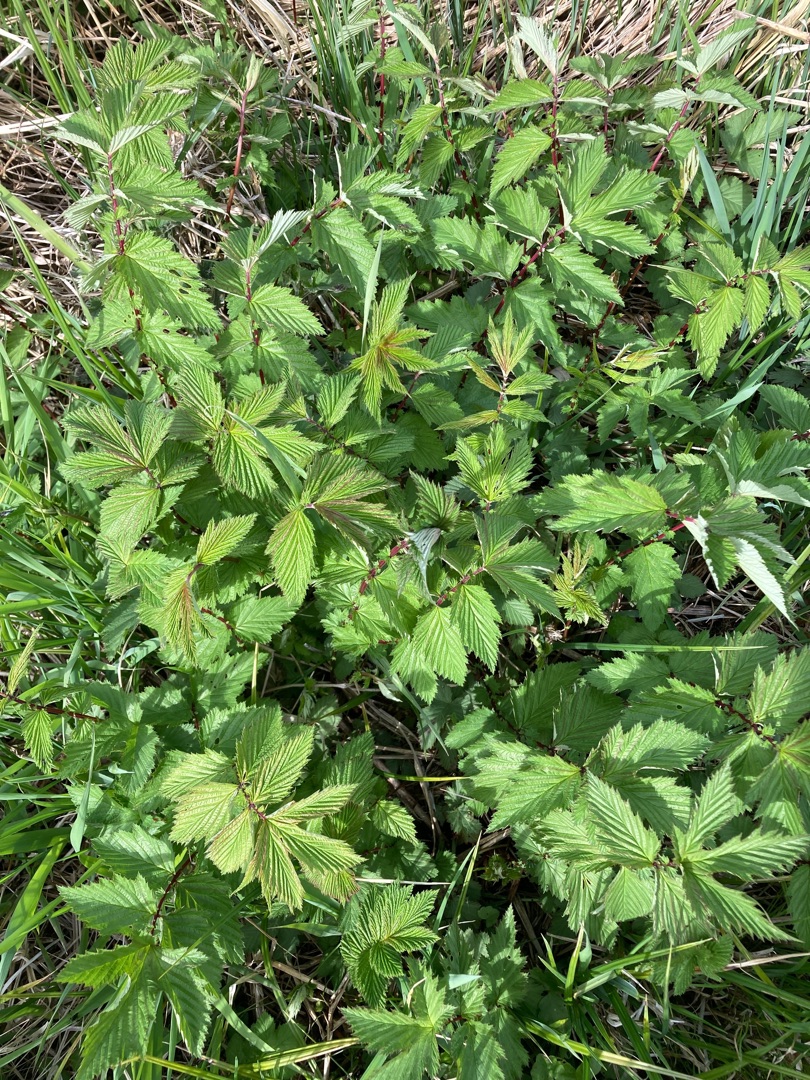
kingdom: Plantae
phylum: Tracheophyta
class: Magnoliopsida
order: Rosales
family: Rosaceae
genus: Filipendula
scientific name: Filipendula ulmaria
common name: Almindelig mjødurt
